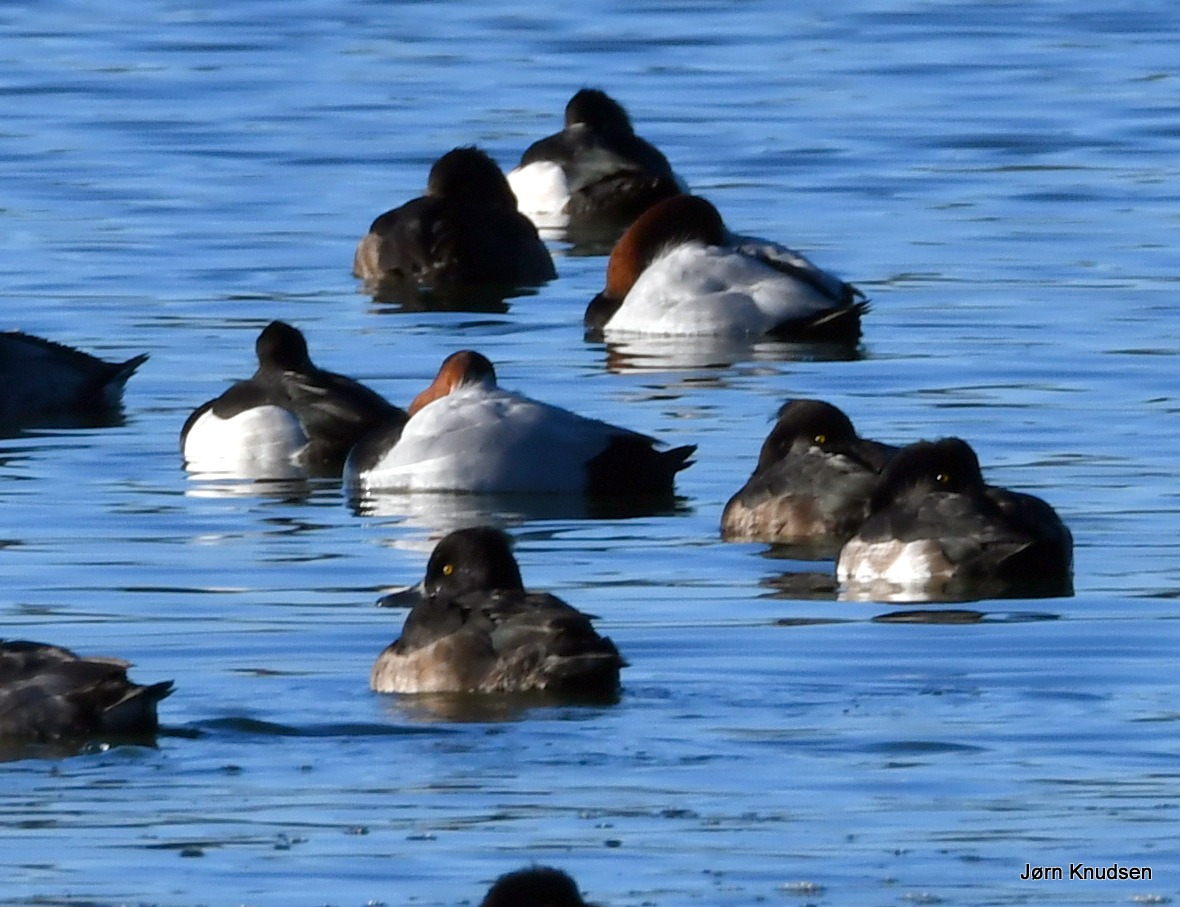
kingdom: Animalia
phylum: Chordata
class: Aves
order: Anseriformes
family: Anatidae
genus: Aythya
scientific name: Aythya ferina
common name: Taffeland
